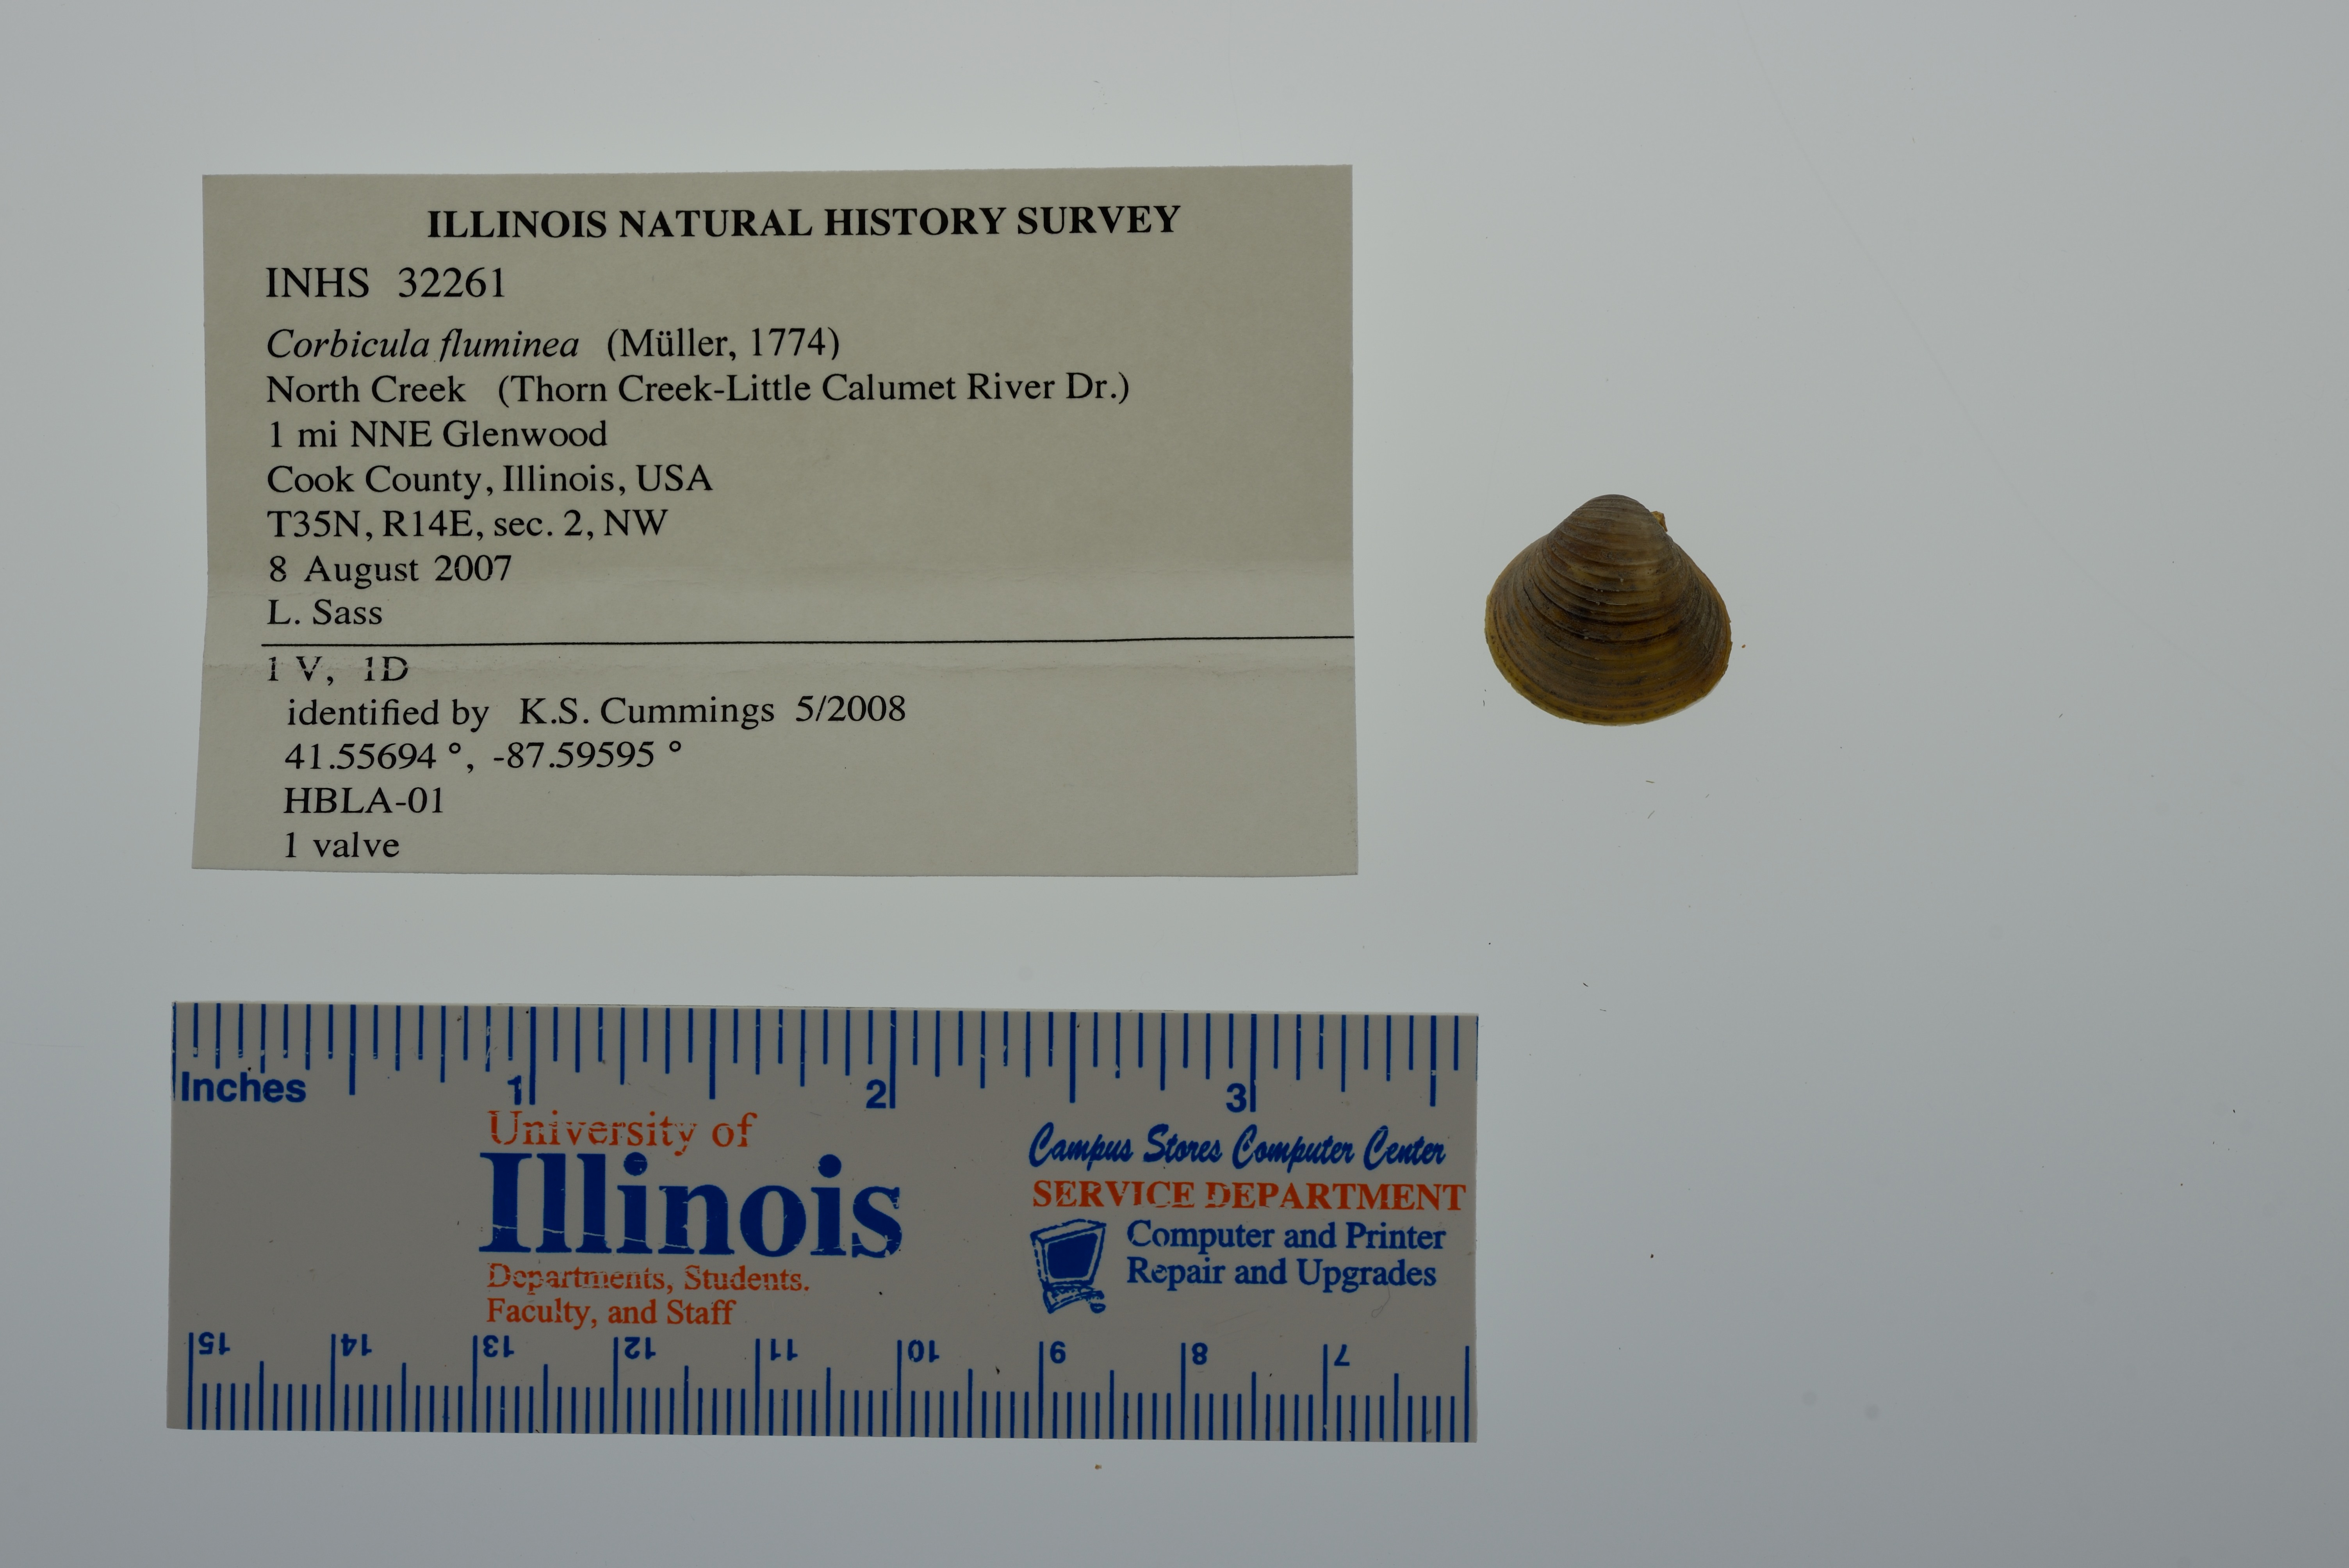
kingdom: Animalia
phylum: Mollusca
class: Bivalvia
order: Venerida
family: Cyrenidae
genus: Corbicula
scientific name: Corbicula fluminea
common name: Asian clam
